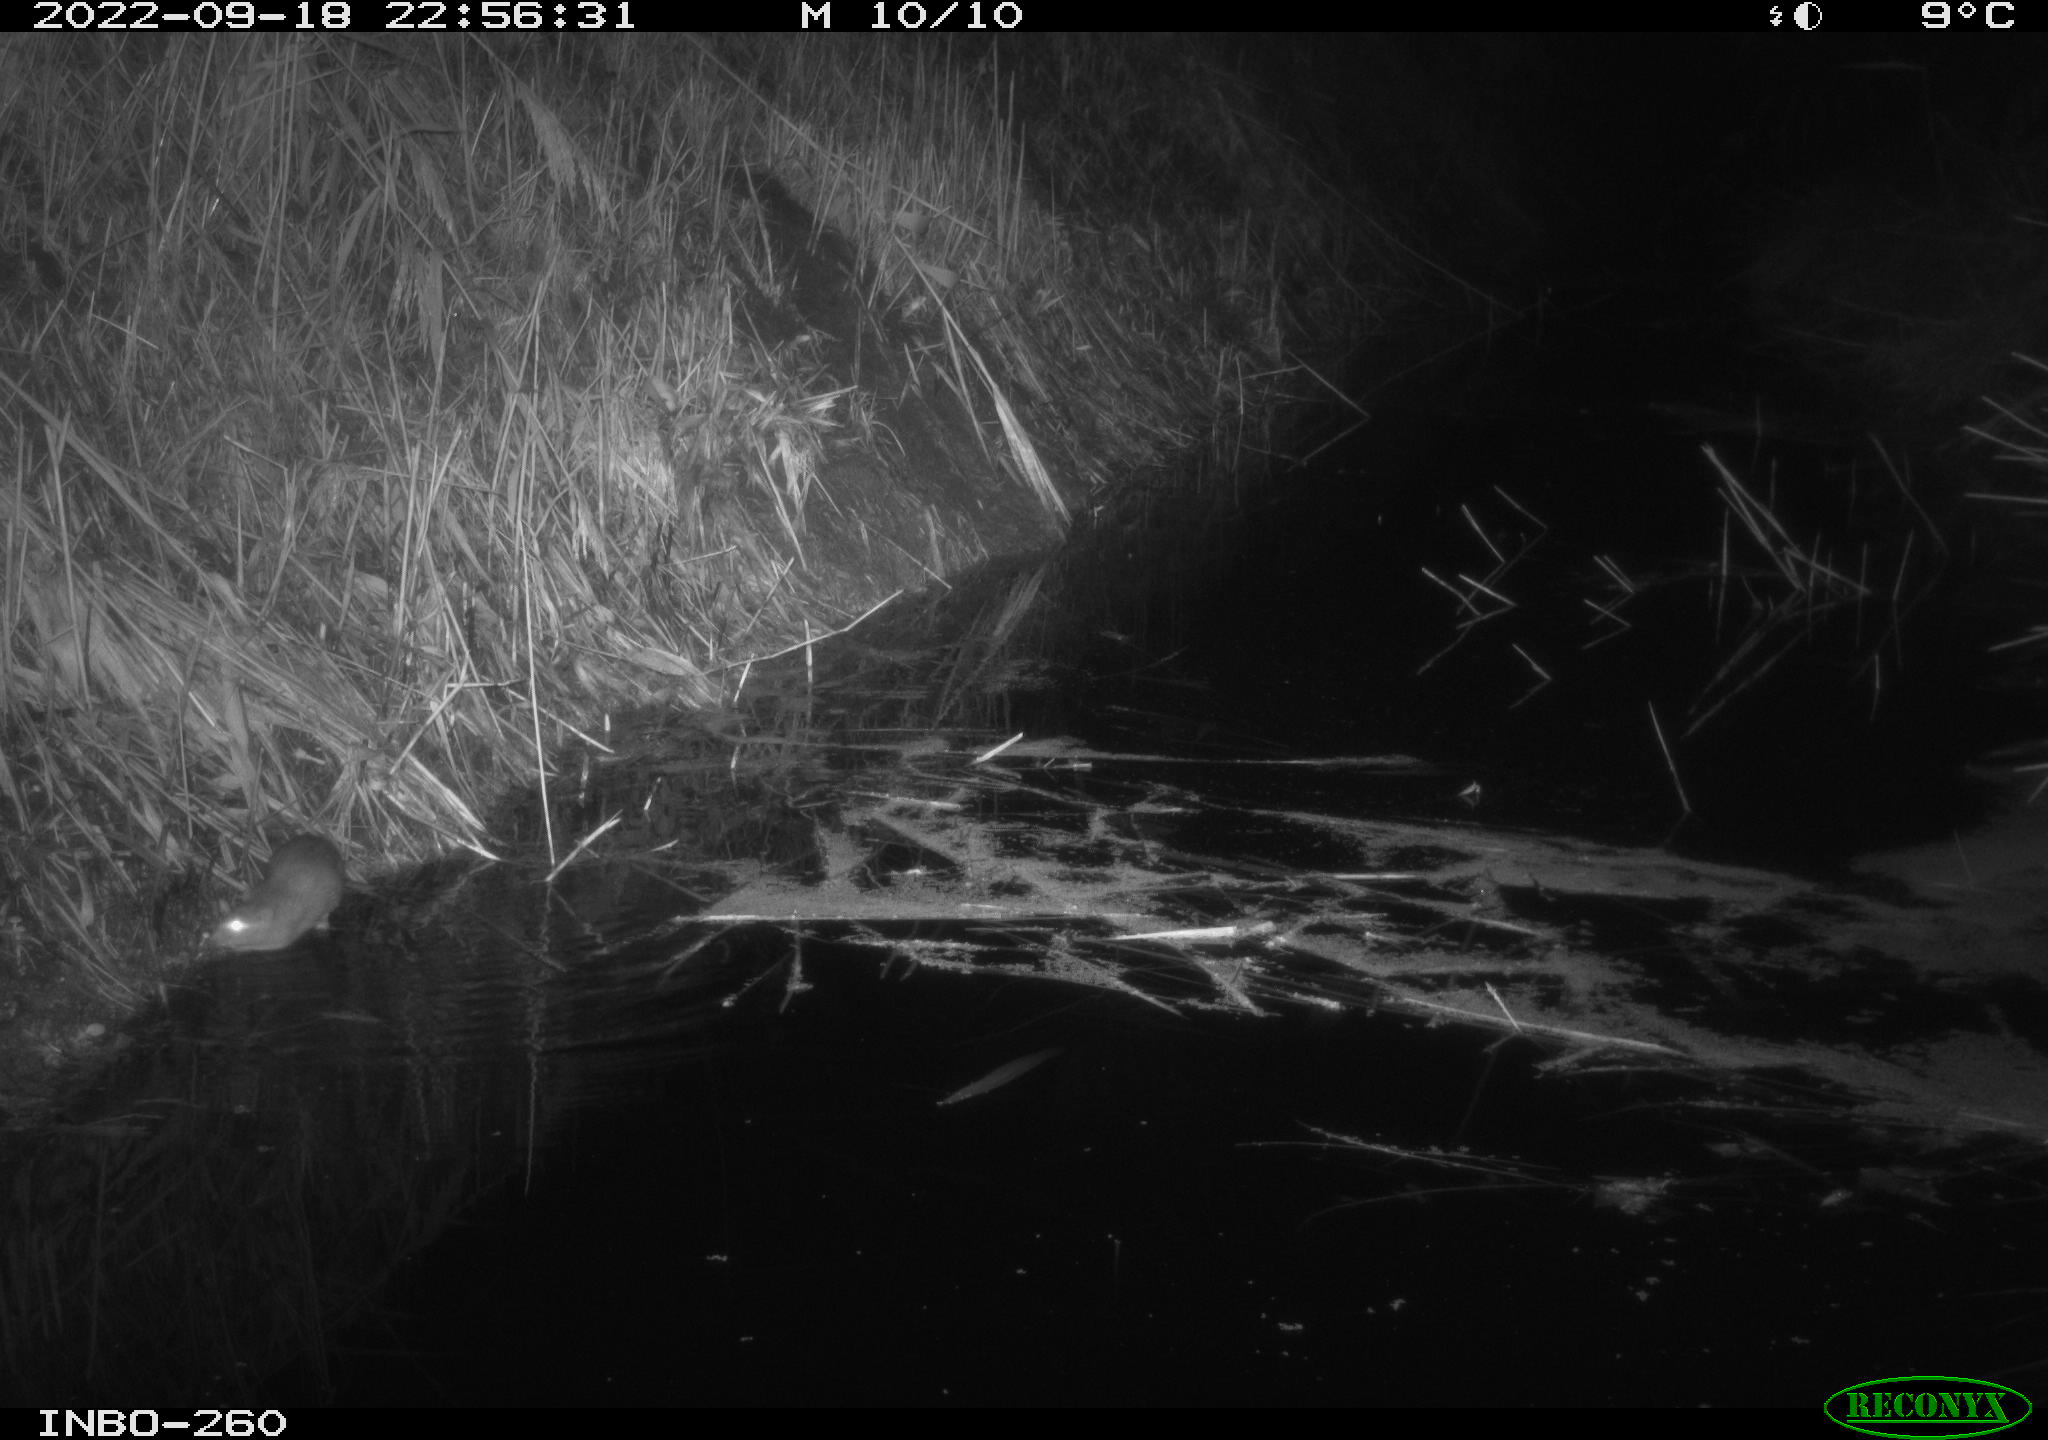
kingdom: Animalia
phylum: Chordata
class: Mammalia
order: Rodentia
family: Muridae
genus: Rattus
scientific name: Rattus norvegicus
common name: Brown rat
